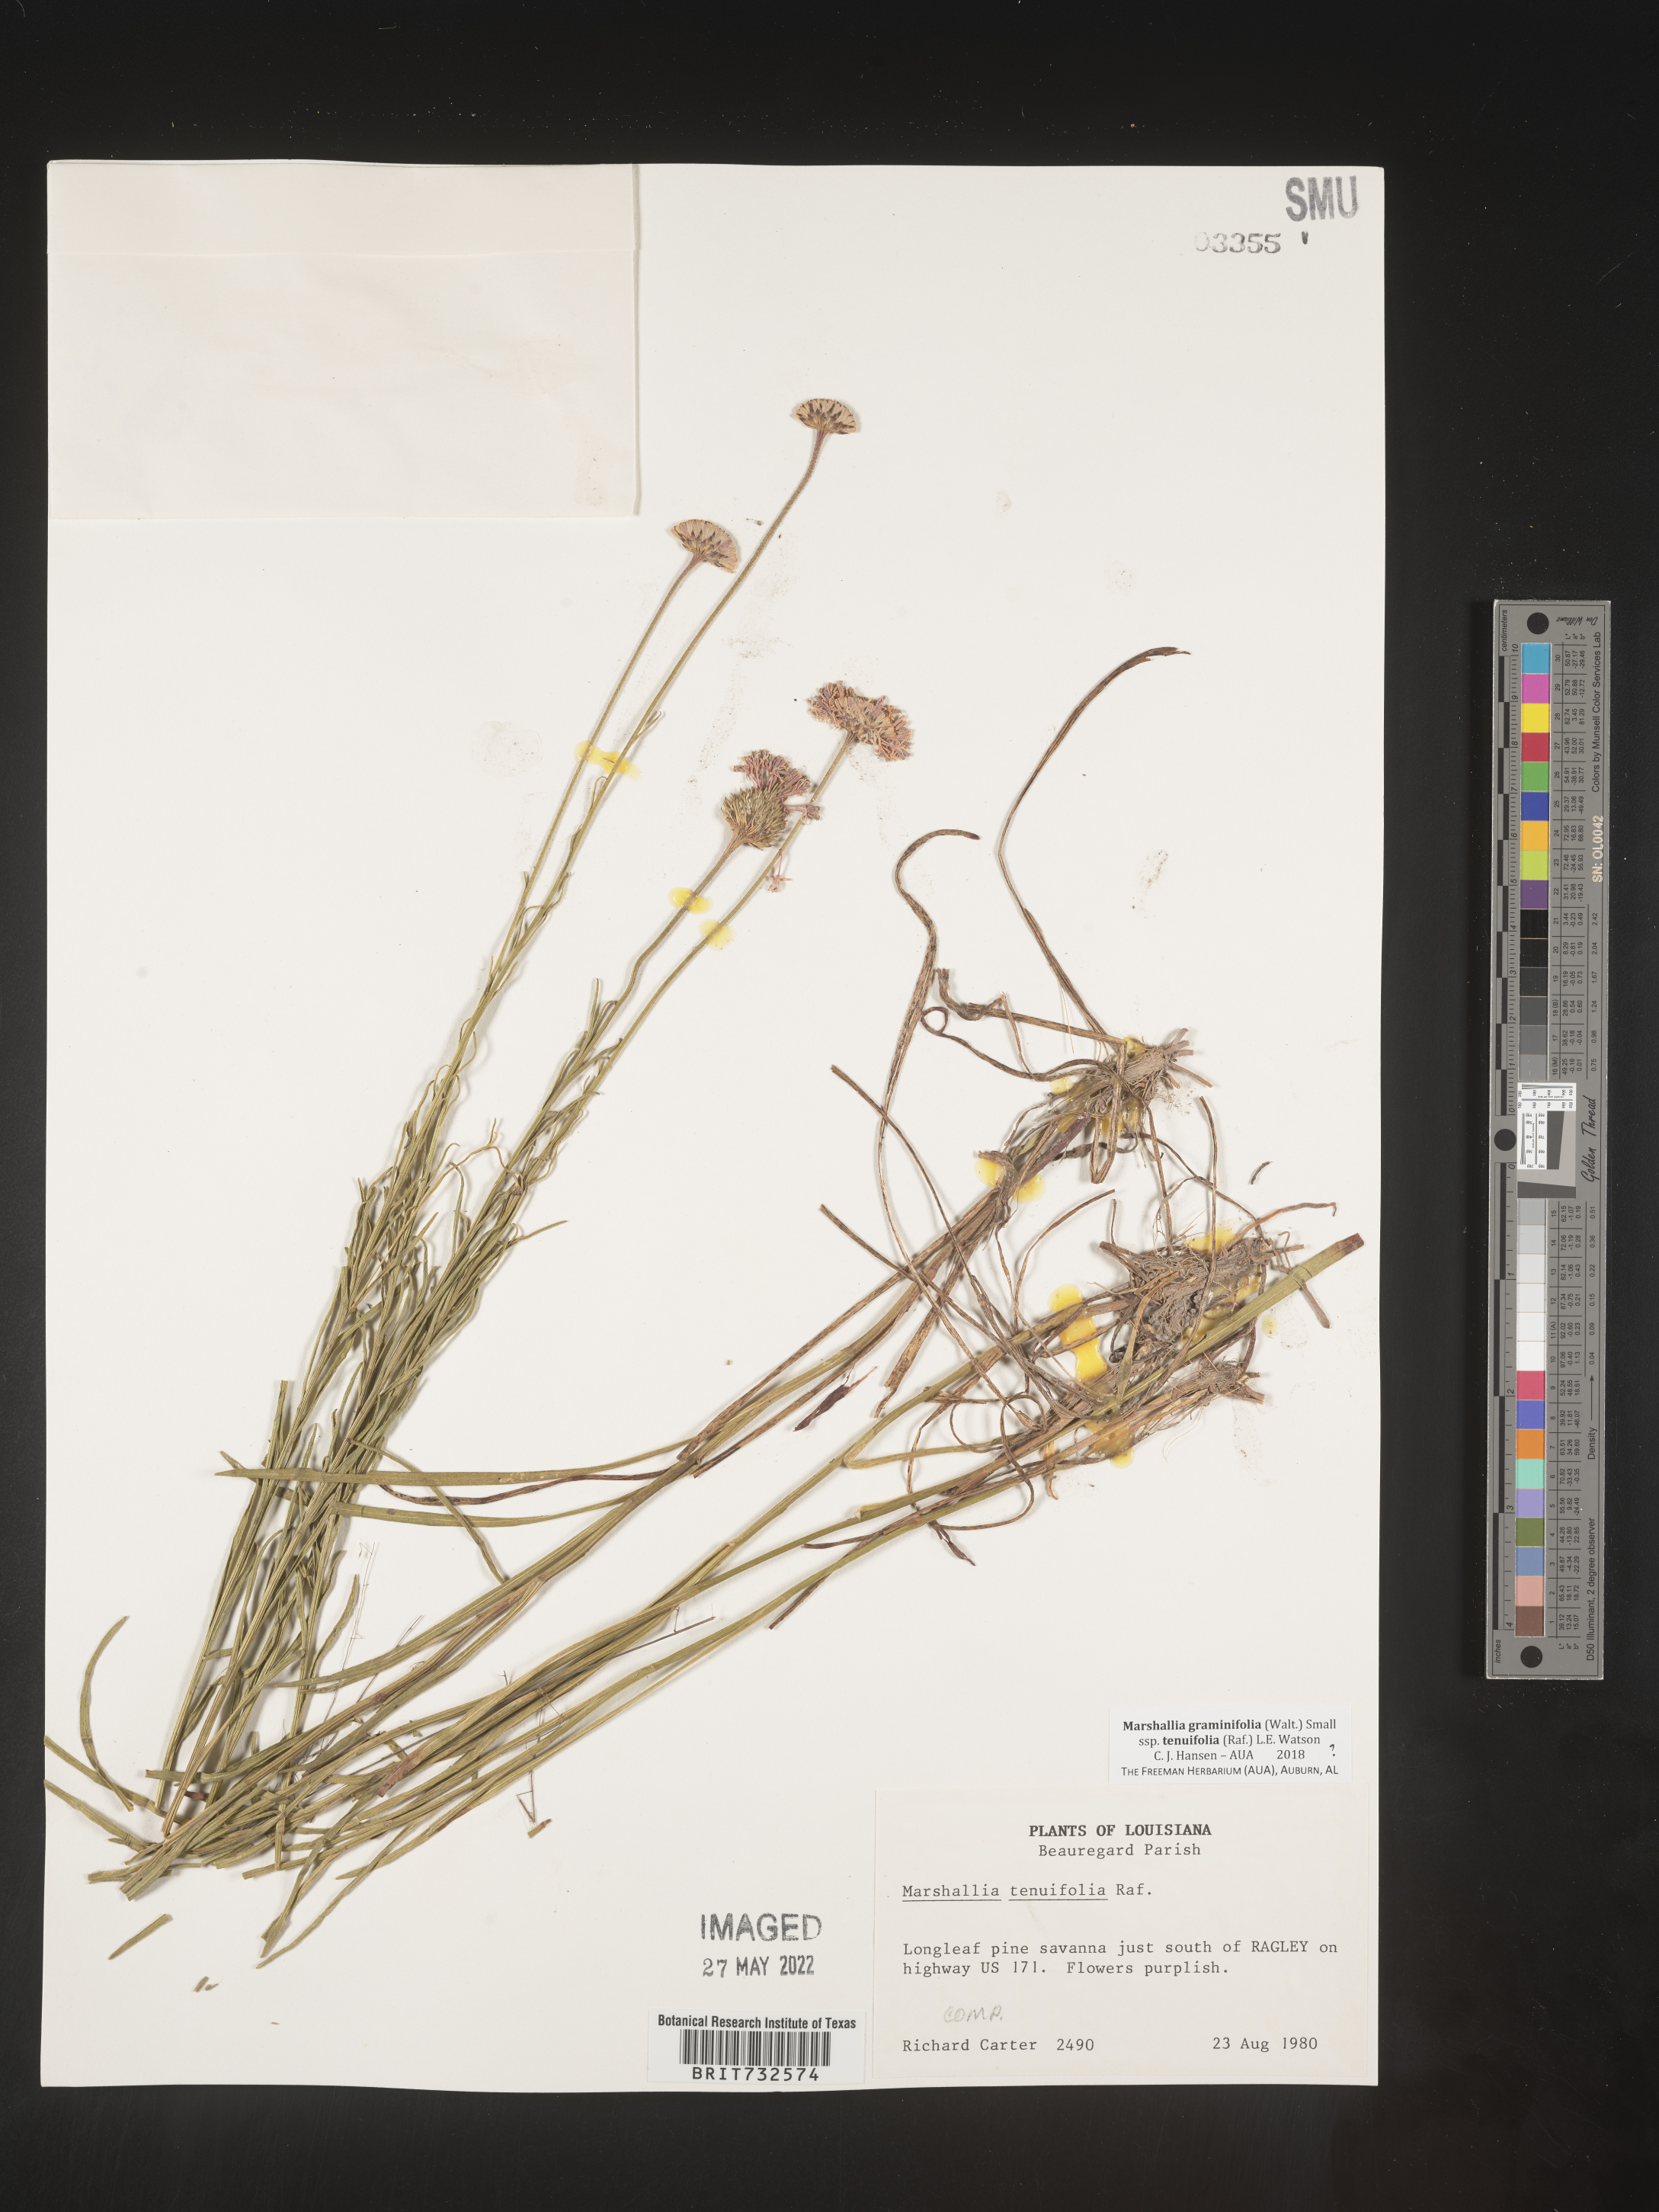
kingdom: Plantae
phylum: Tracheophyta
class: Magnoliopsida
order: Asterales
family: Asteraceae
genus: Marshallia
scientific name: Marshallia graminifolia
